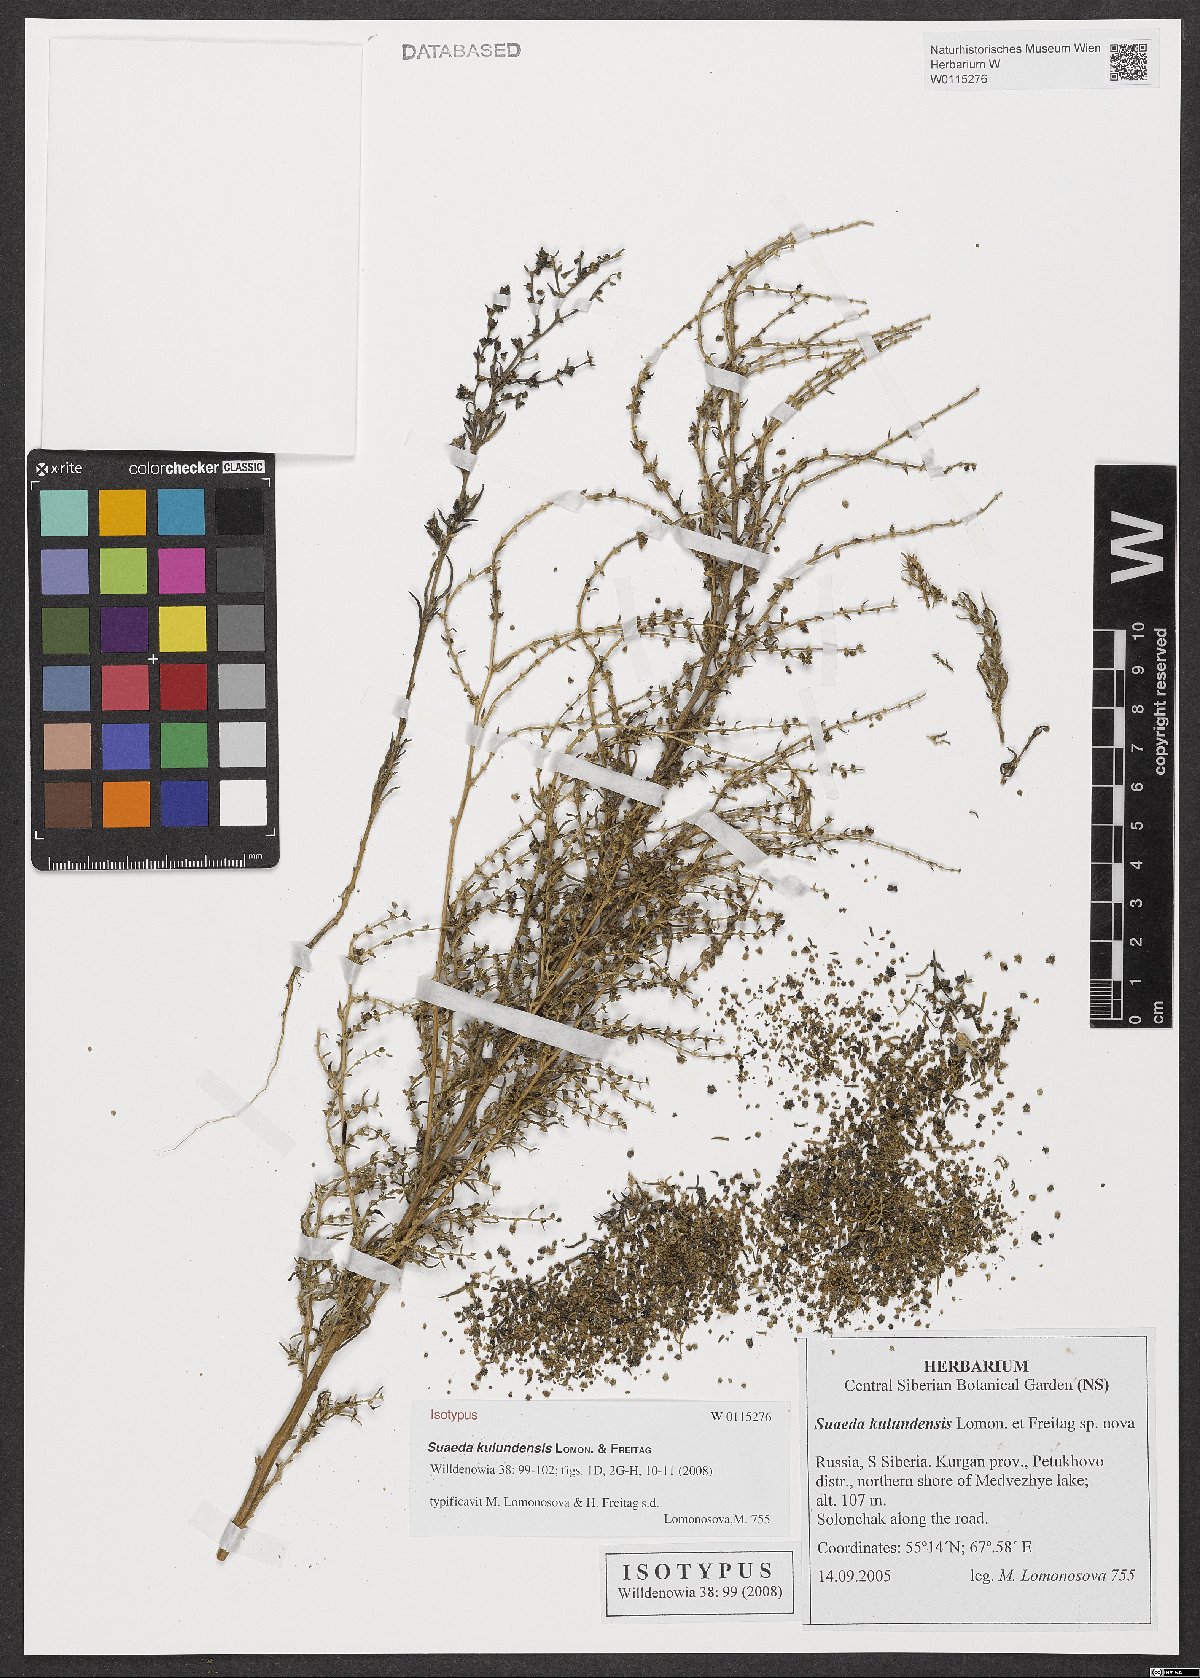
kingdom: Plantae
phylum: Tracheophyta
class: Magnoliopsida
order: Caryophyllales
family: Amaranthaceae
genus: Suaeda
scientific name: Suaeda kulundensis
